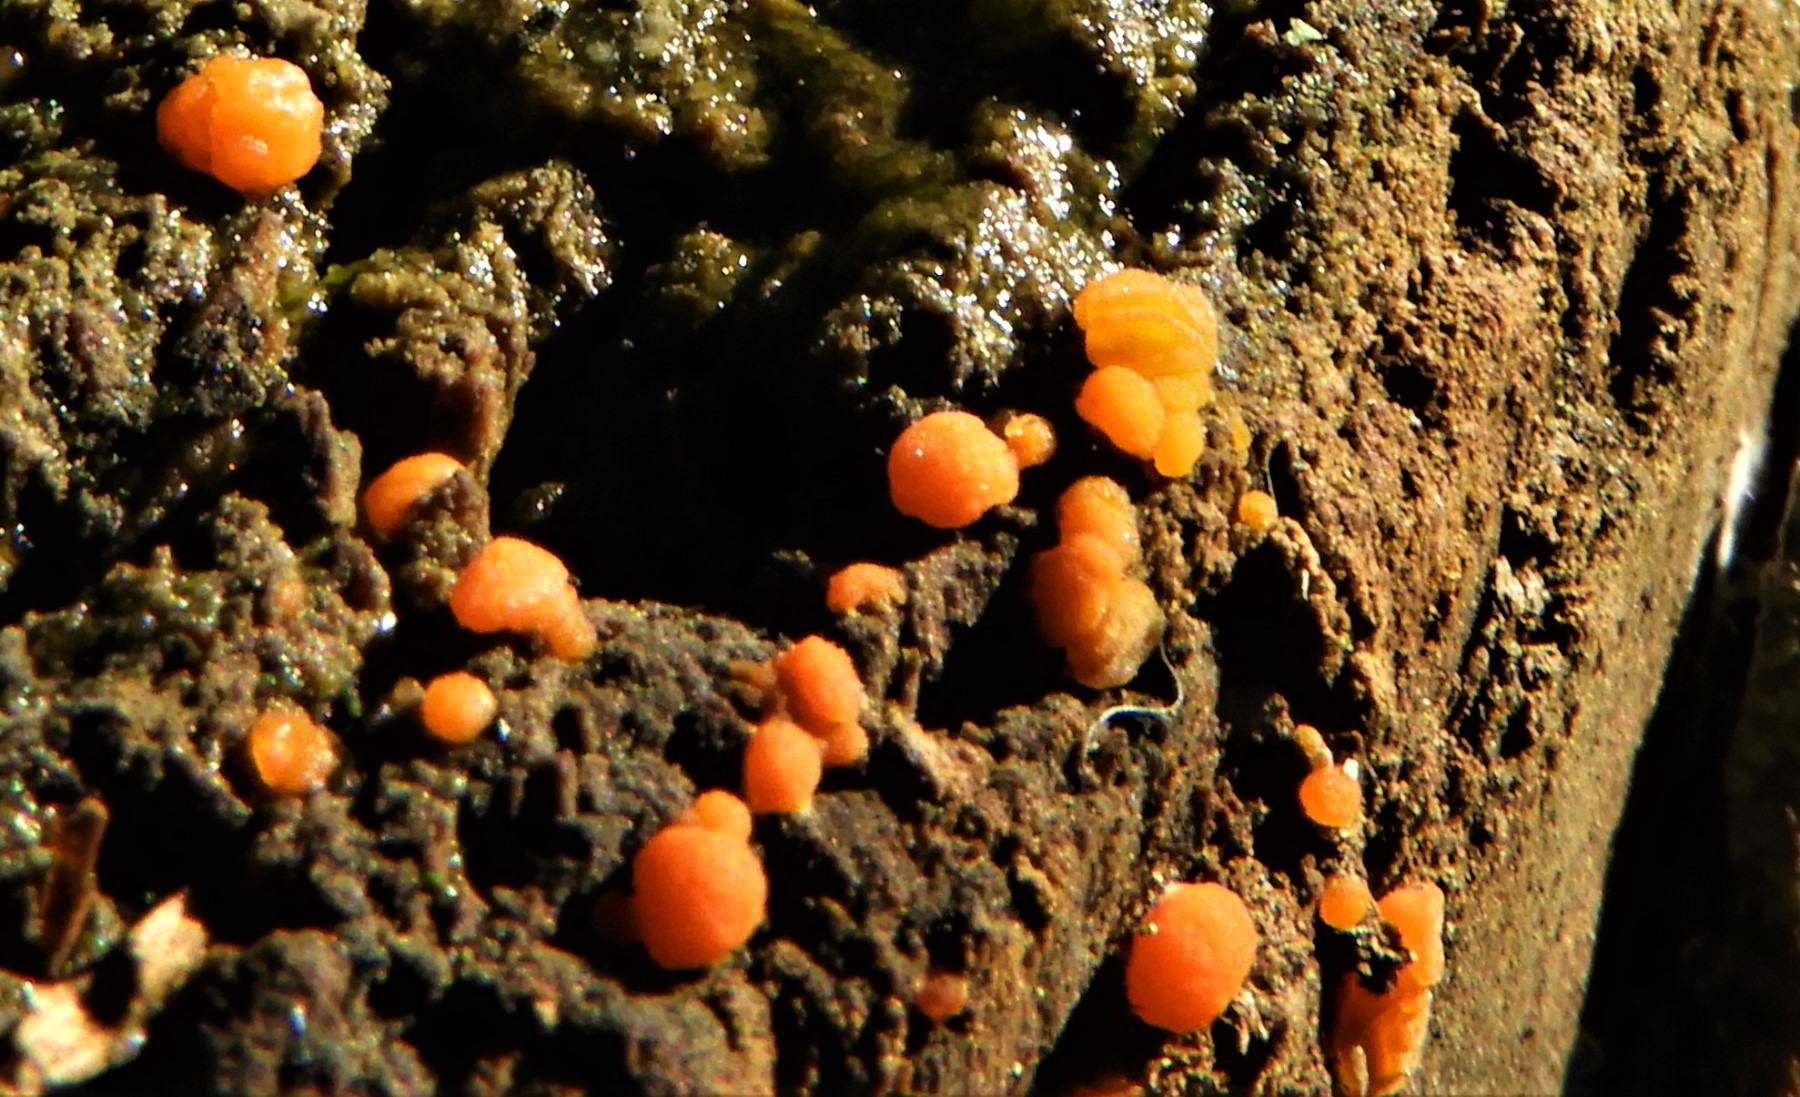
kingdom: Fungi
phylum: Ascomycota
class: Pezizomycetes
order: Pezizales
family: Pyronemataceae
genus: Pulvinula
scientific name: Pulvinula
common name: pudebæger
